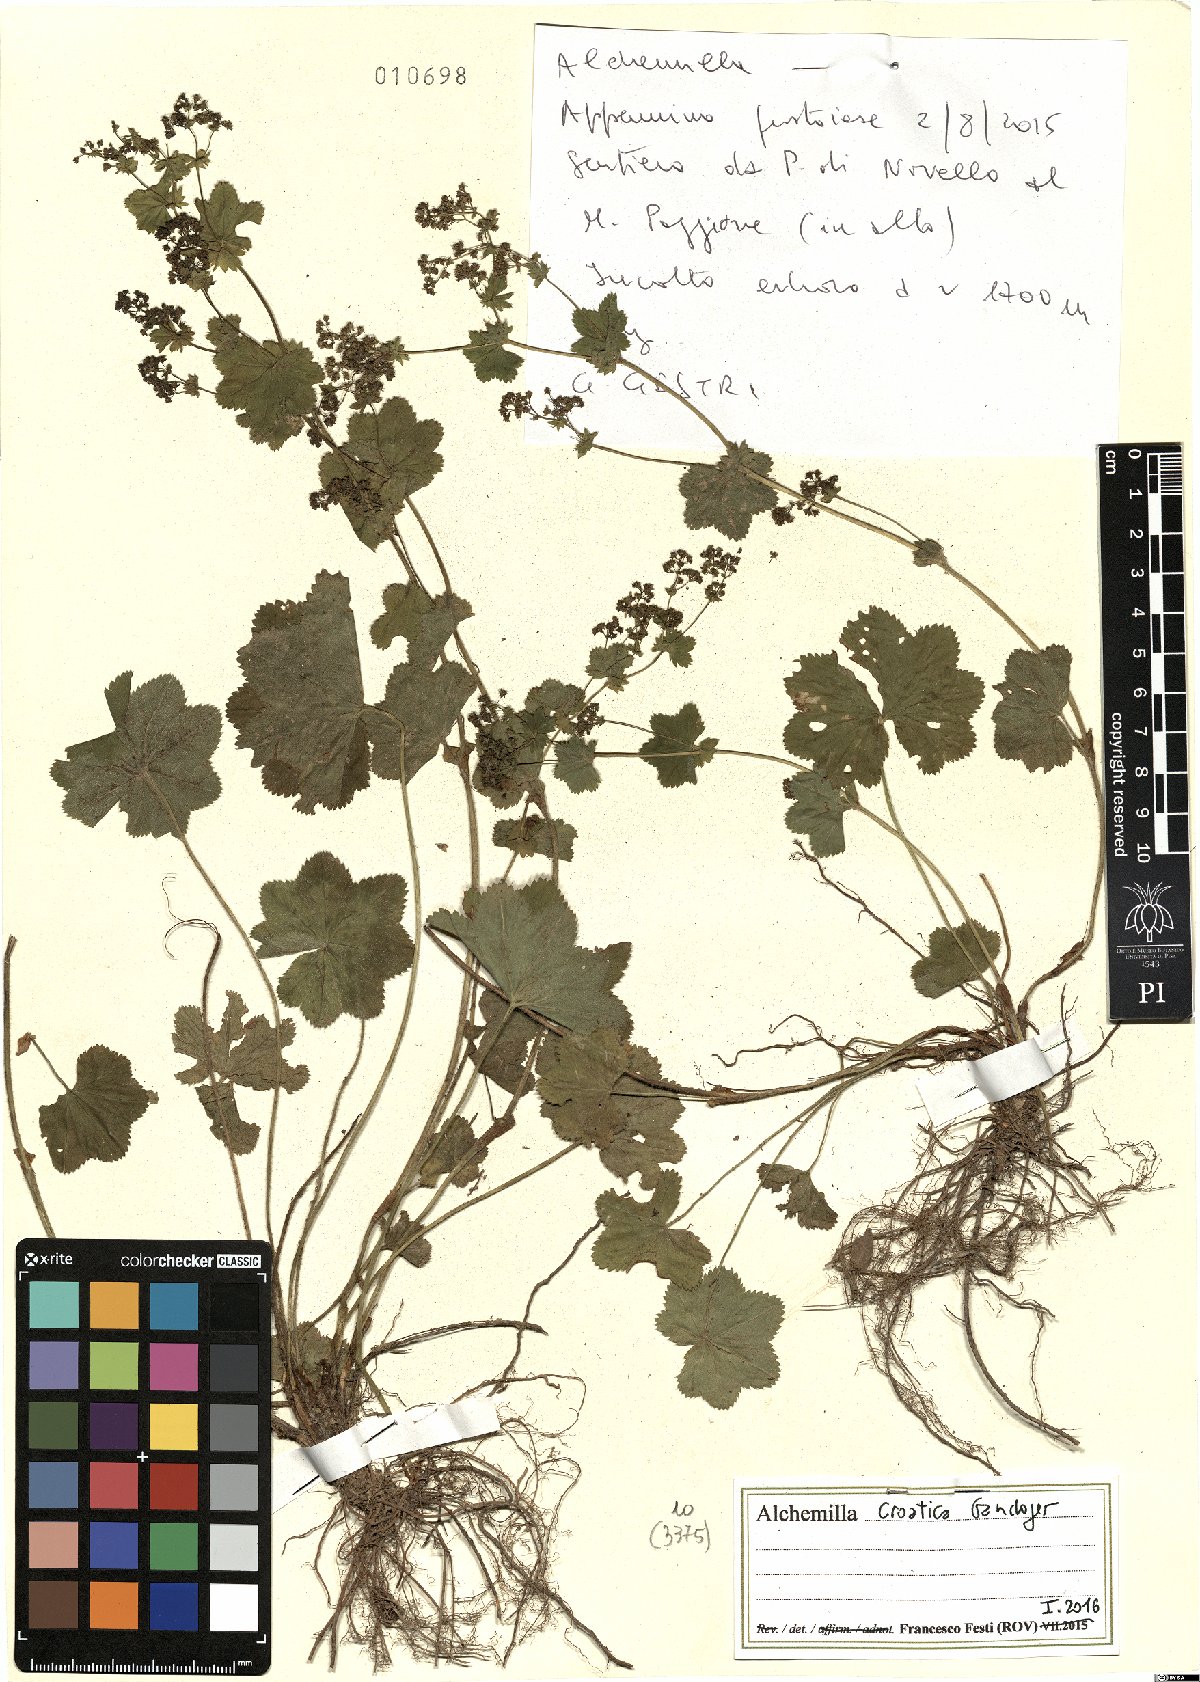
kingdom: Plantae
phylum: Tracheophyta
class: Magnoliopsida
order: Rosales
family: Rosaceae
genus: Alchemilla
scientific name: Alchemilla croatica
